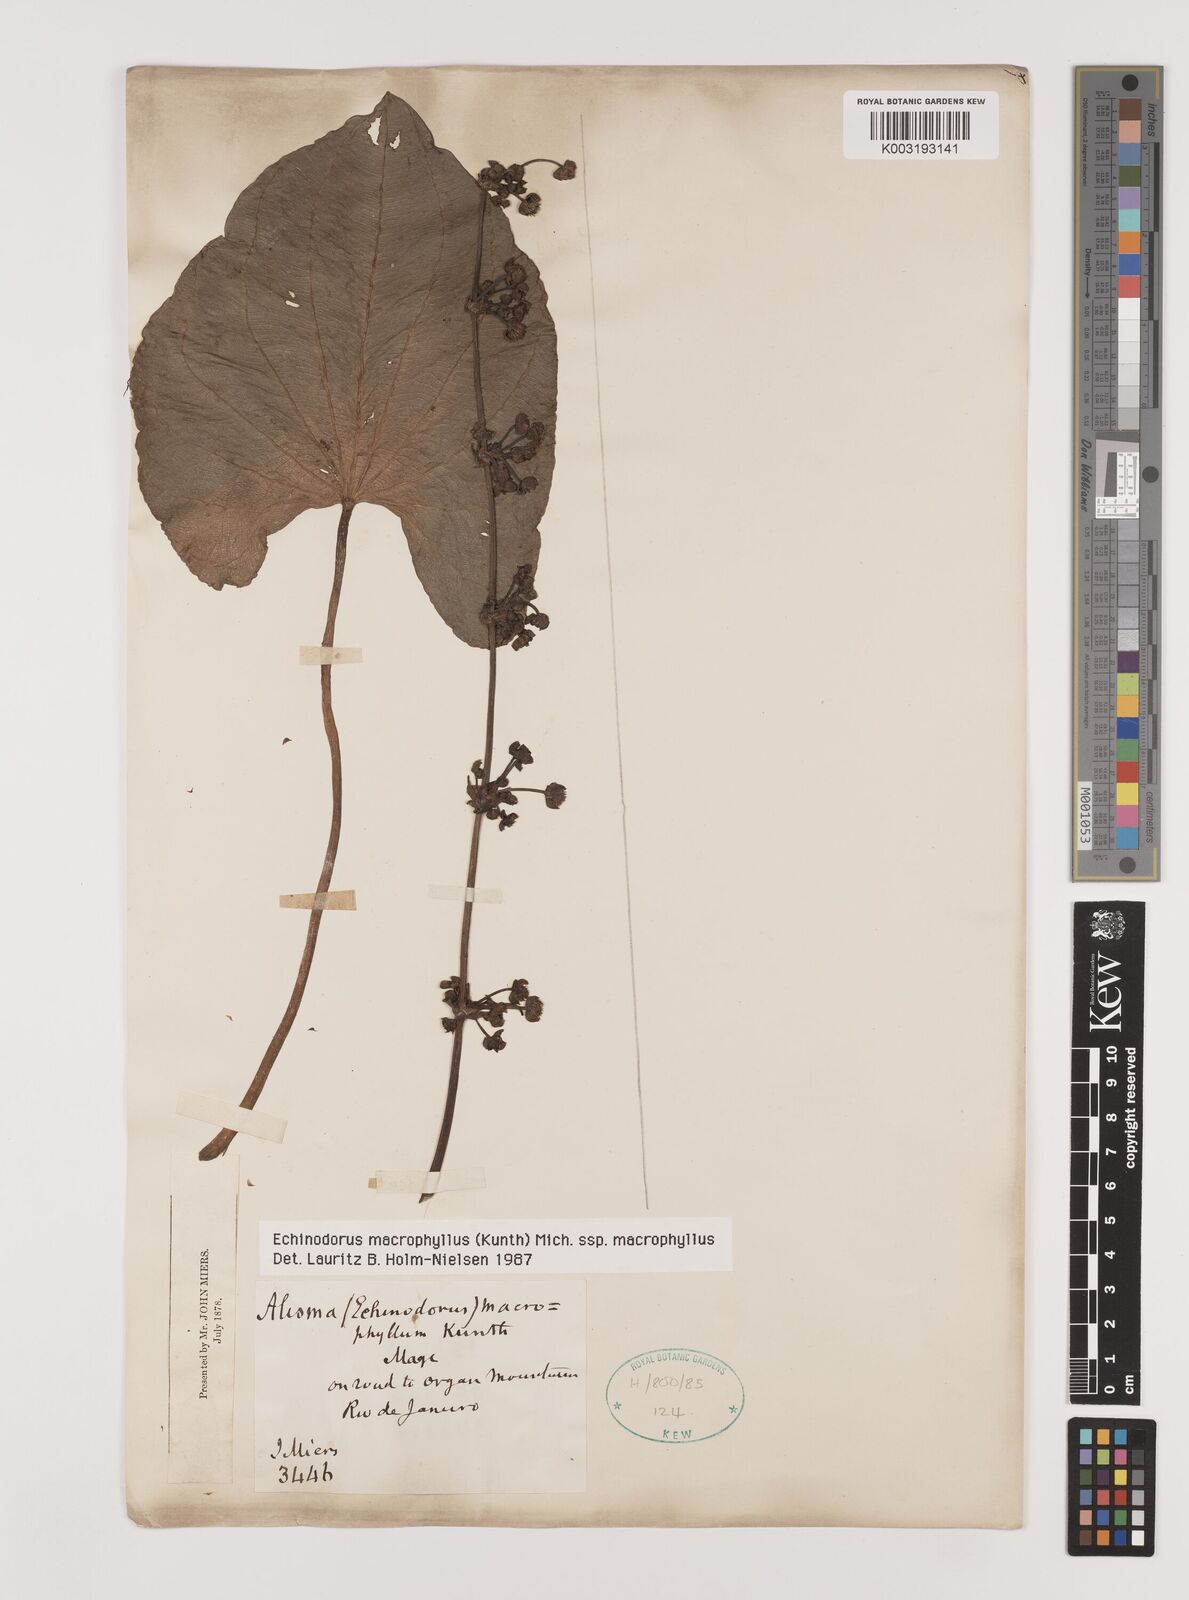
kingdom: Plantae
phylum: Tracheophyta
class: Liliopsida
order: Alismatales
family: Alismataceae
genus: Aquarius
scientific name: Aquarius macrophyllus
